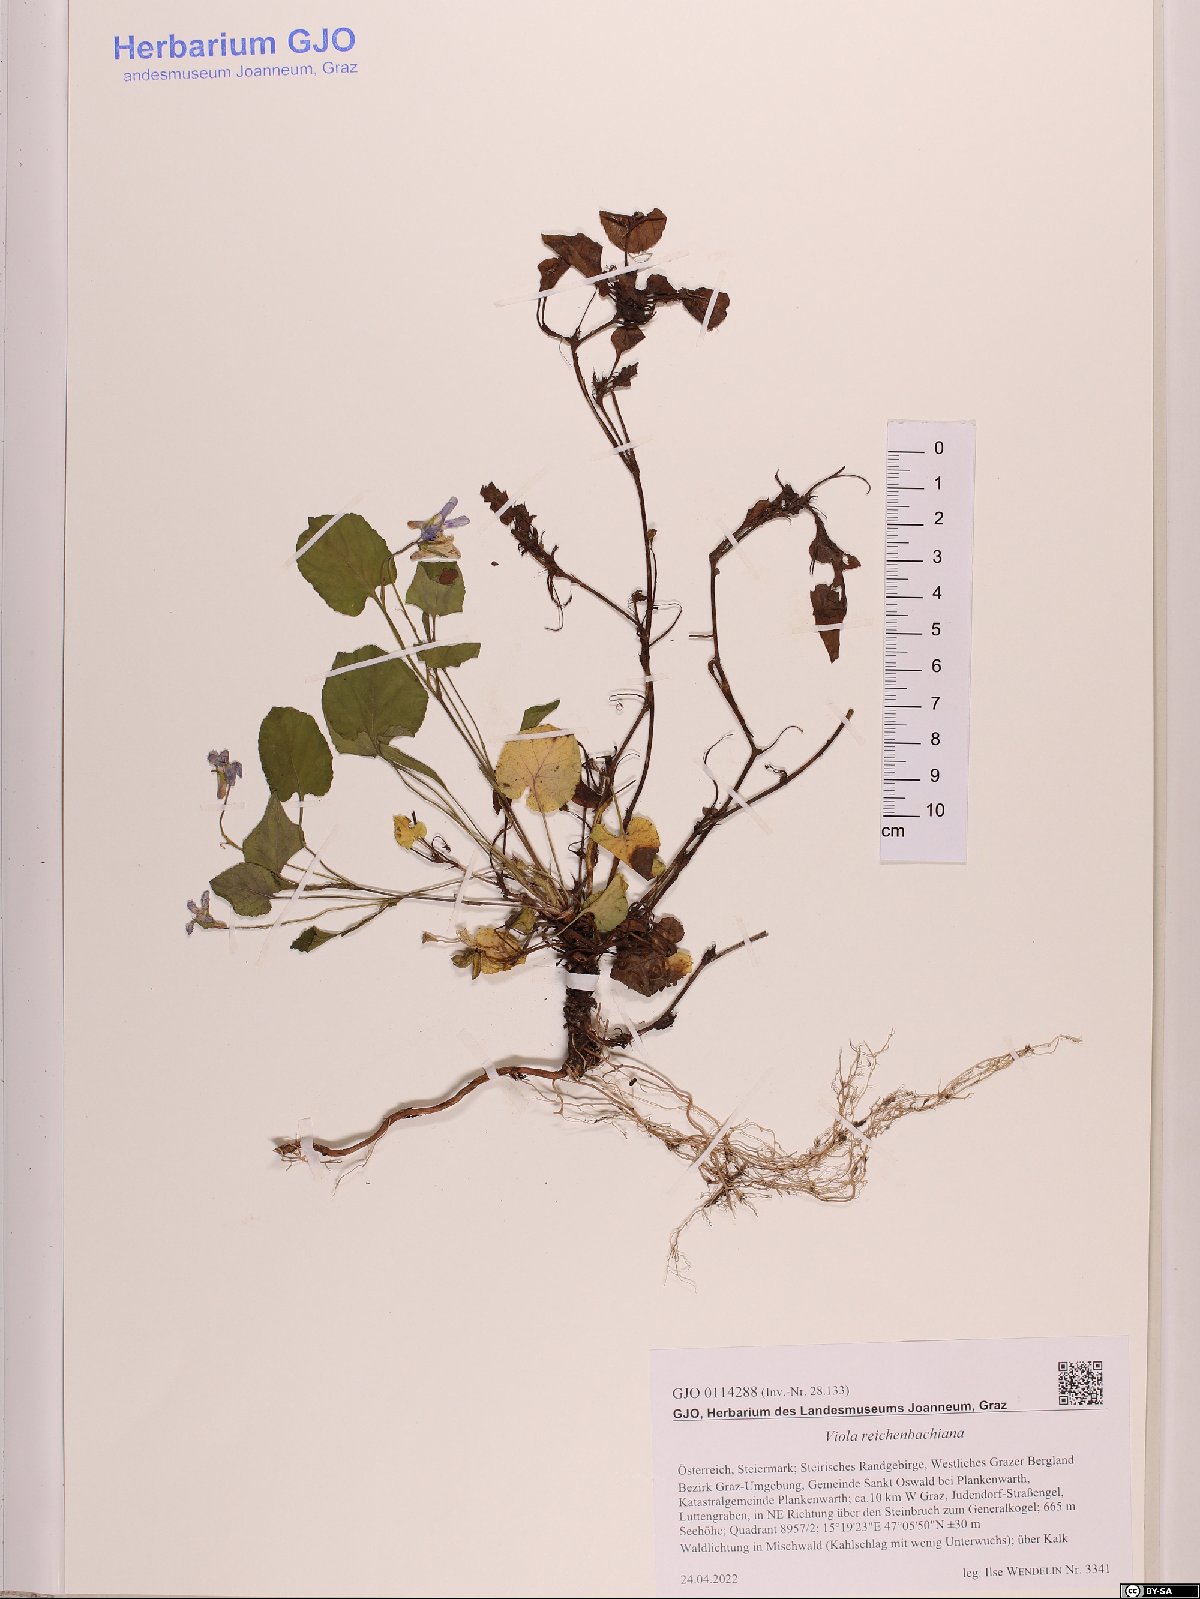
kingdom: Plantae
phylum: Tracheophyta
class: Magnoliopsida
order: Malpighiales
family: Violaceae
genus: Viola
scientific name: Viola reichenbachiana
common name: Early dog-violet
